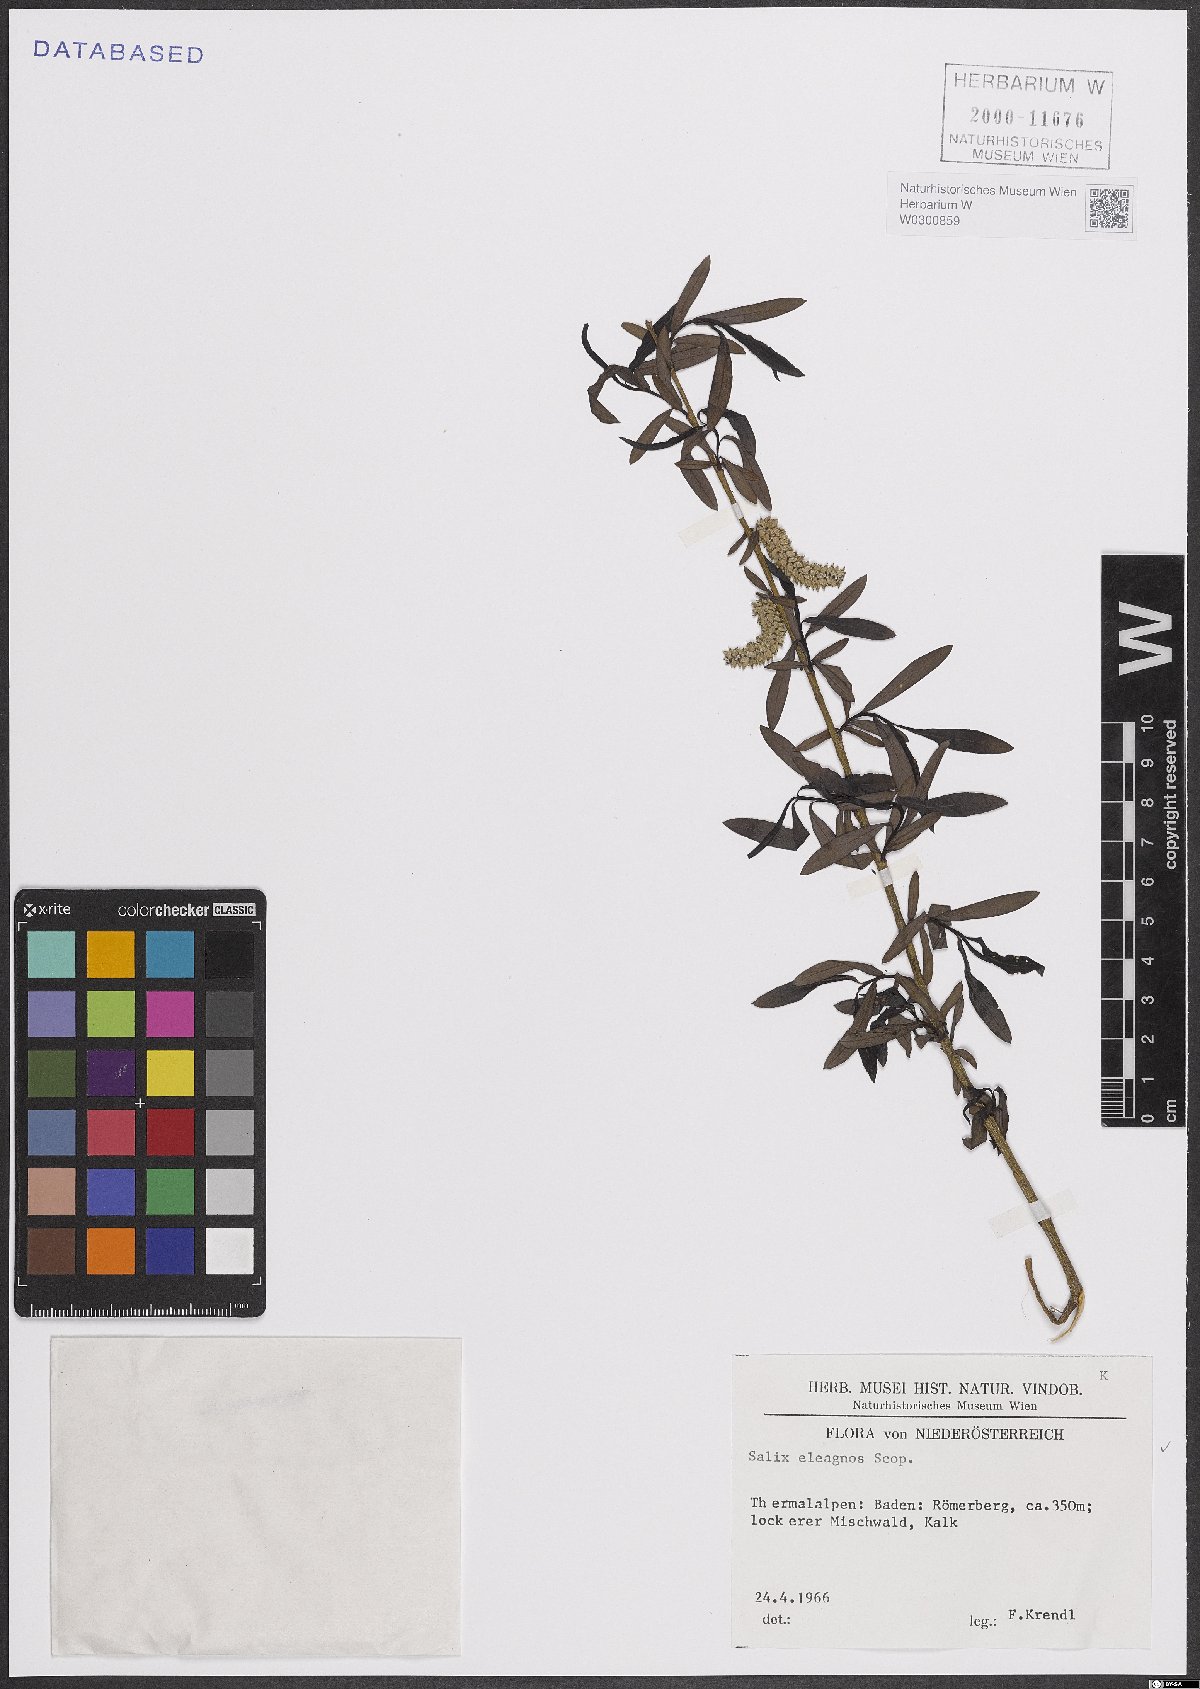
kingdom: Plantae
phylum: Tracheophyta
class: Magnoliopsida
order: Malpighiales
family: Salicaceae
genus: Salix
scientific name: Salix eleagnos
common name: Elaeagnus willow
